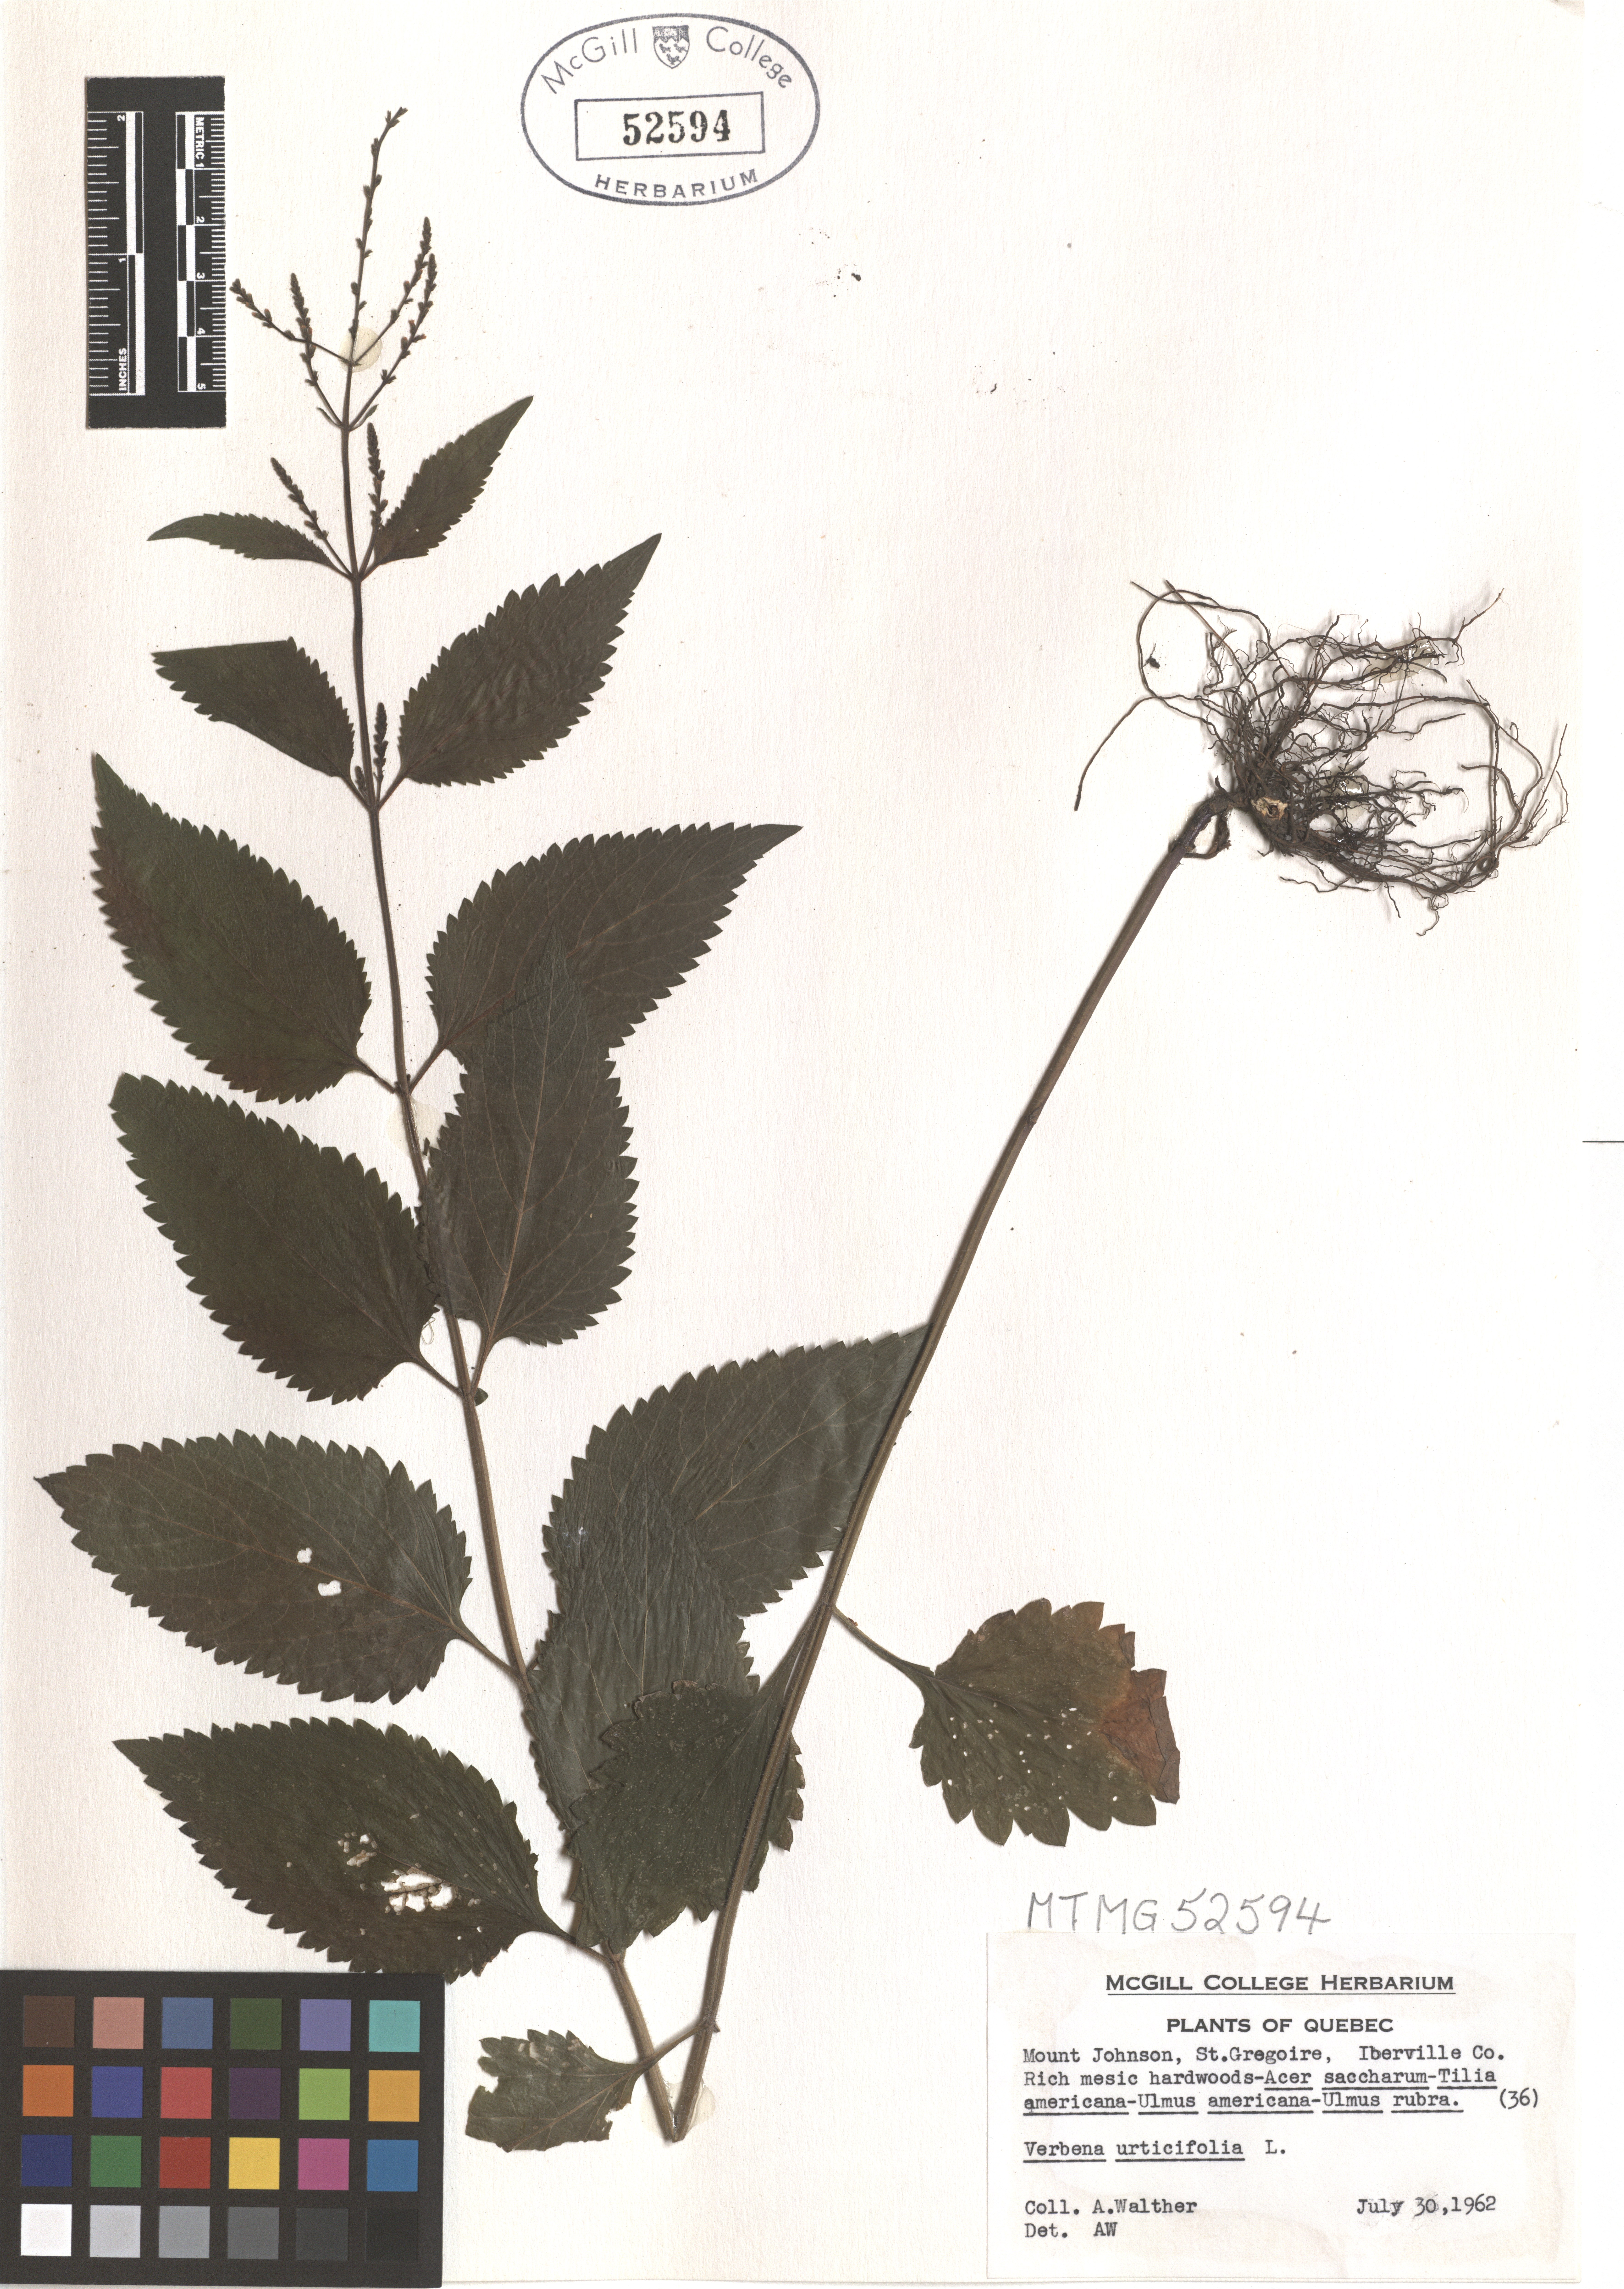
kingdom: Plantae
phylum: Tracheophyta
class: Magnoliopsida
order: Lamiales
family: Verbenaceae
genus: Verbena
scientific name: Verbena urticifolia
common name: Nettle-leaved vervain
